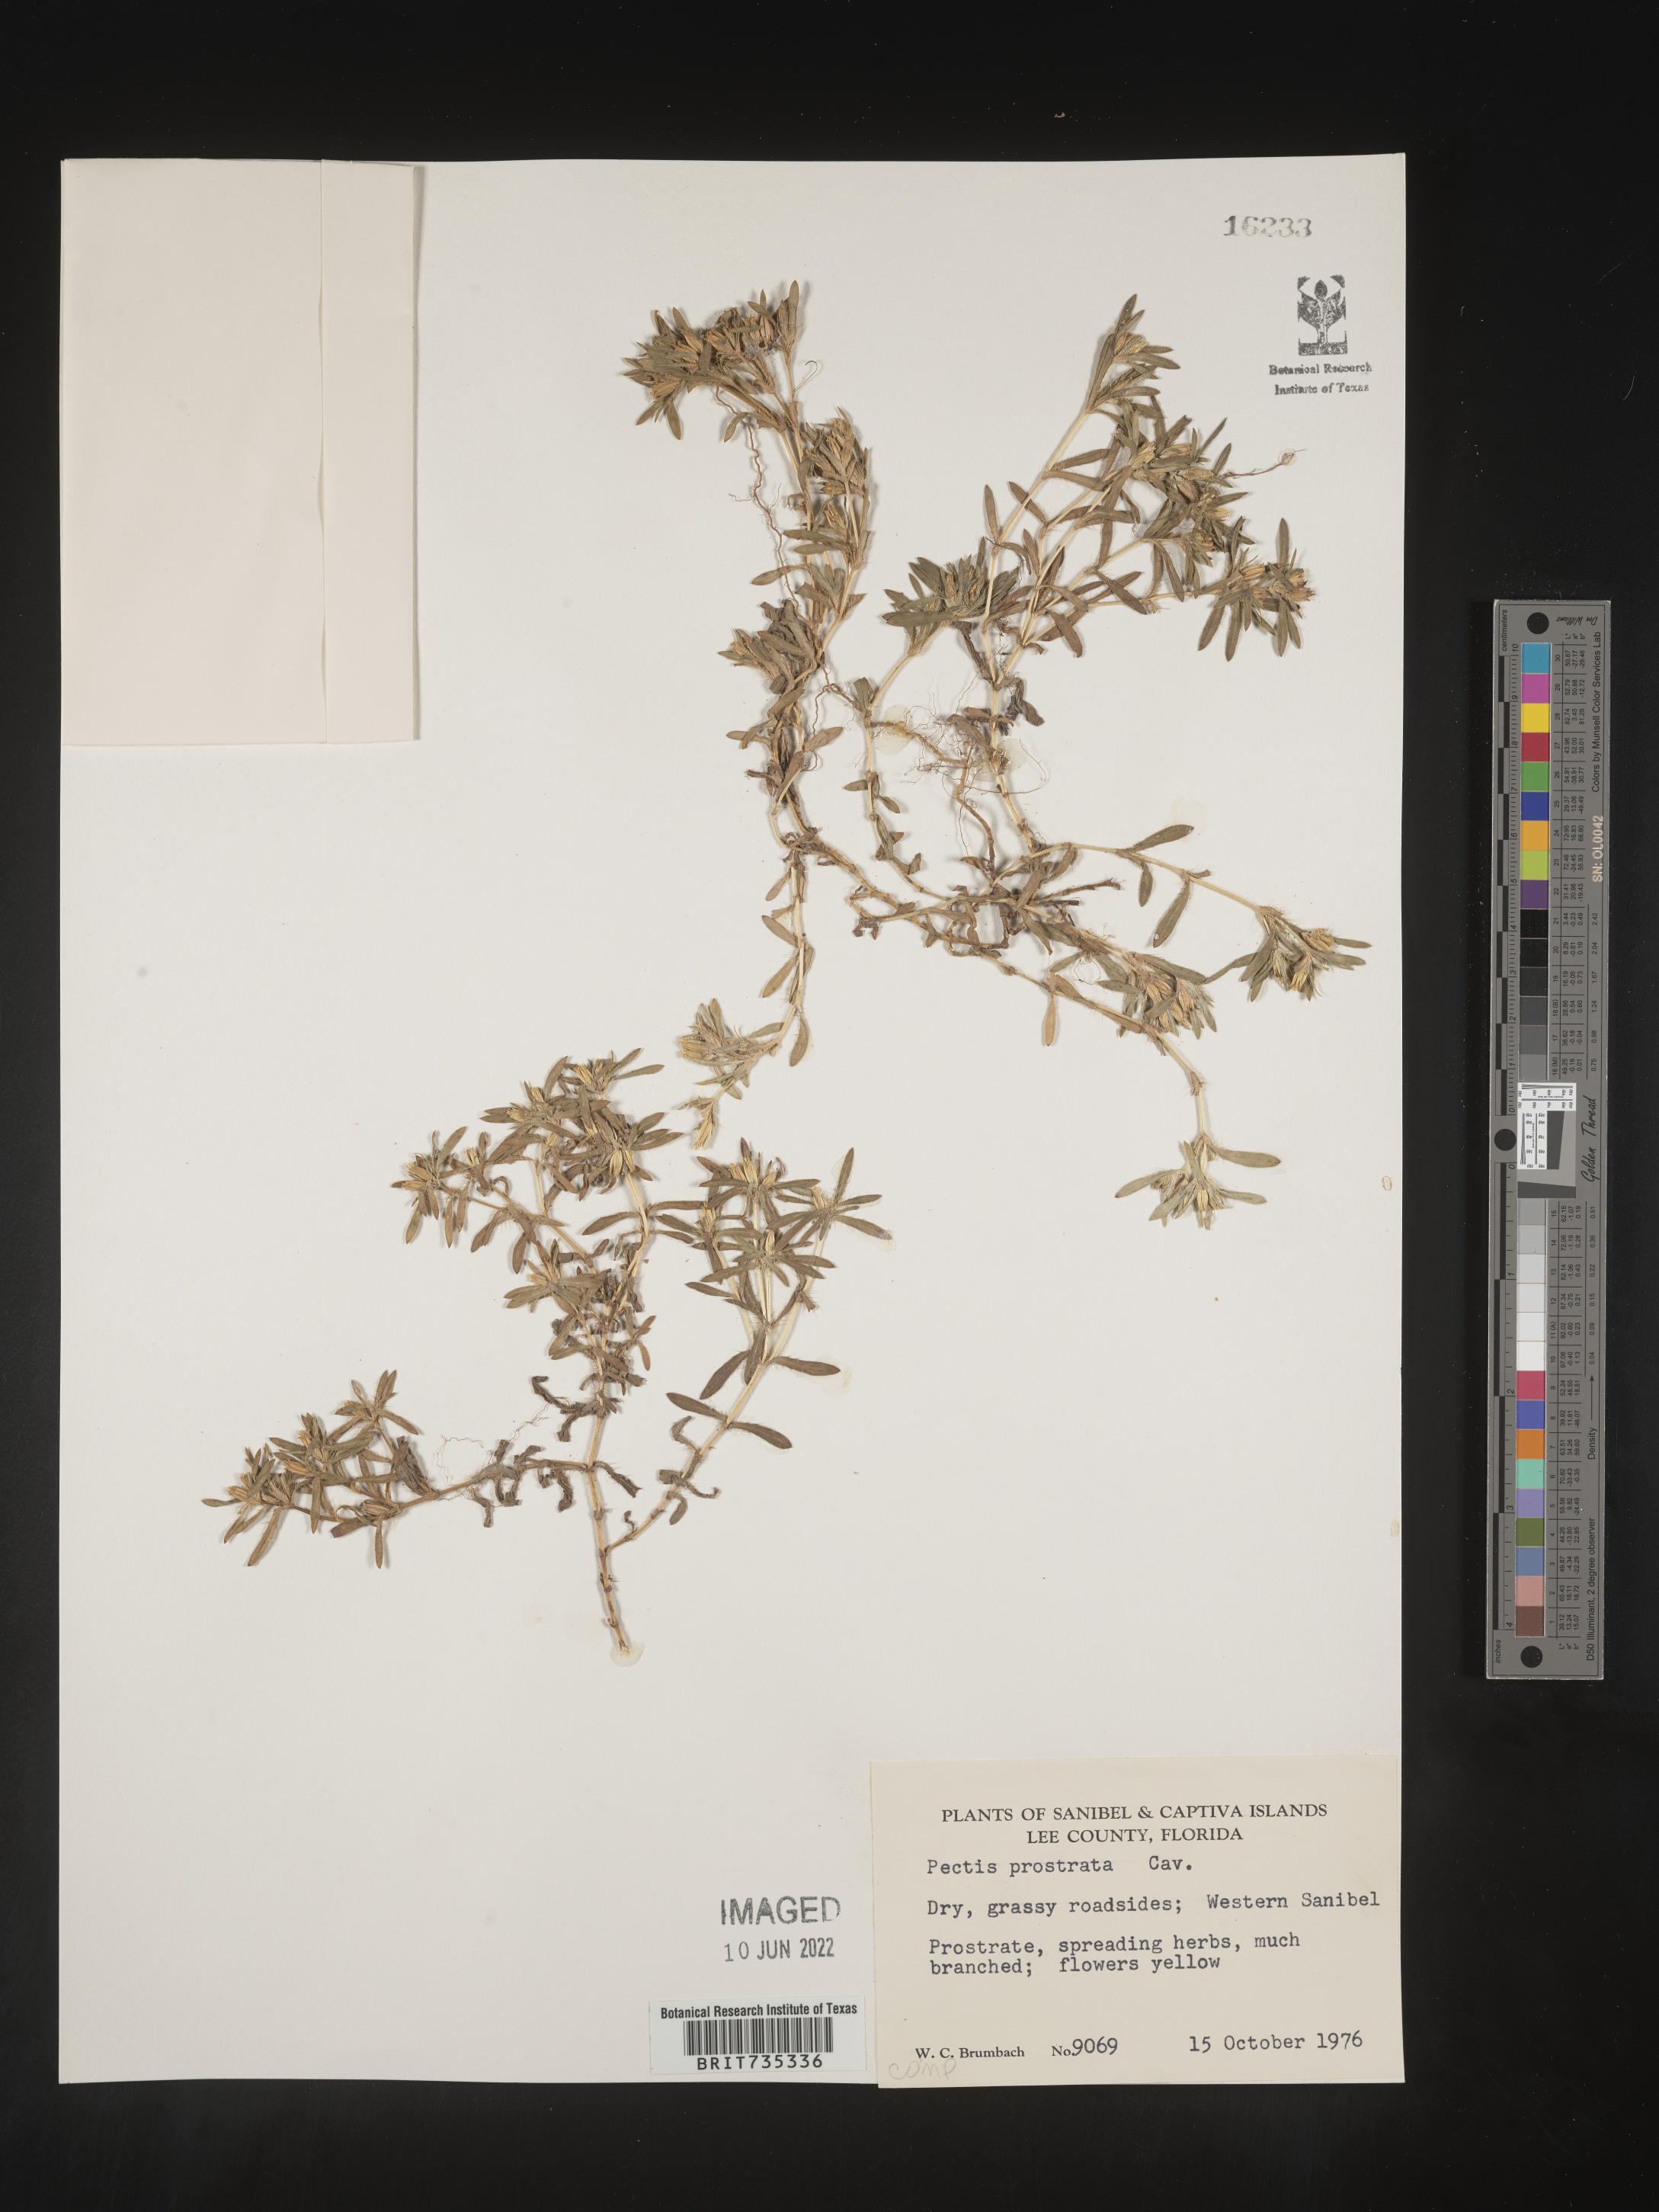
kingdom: Plantae
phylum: Tracheophyta
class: Magnoliopsida
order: Asterales
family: Asteraceae
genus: Pectis
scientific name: Pectis prostrata
